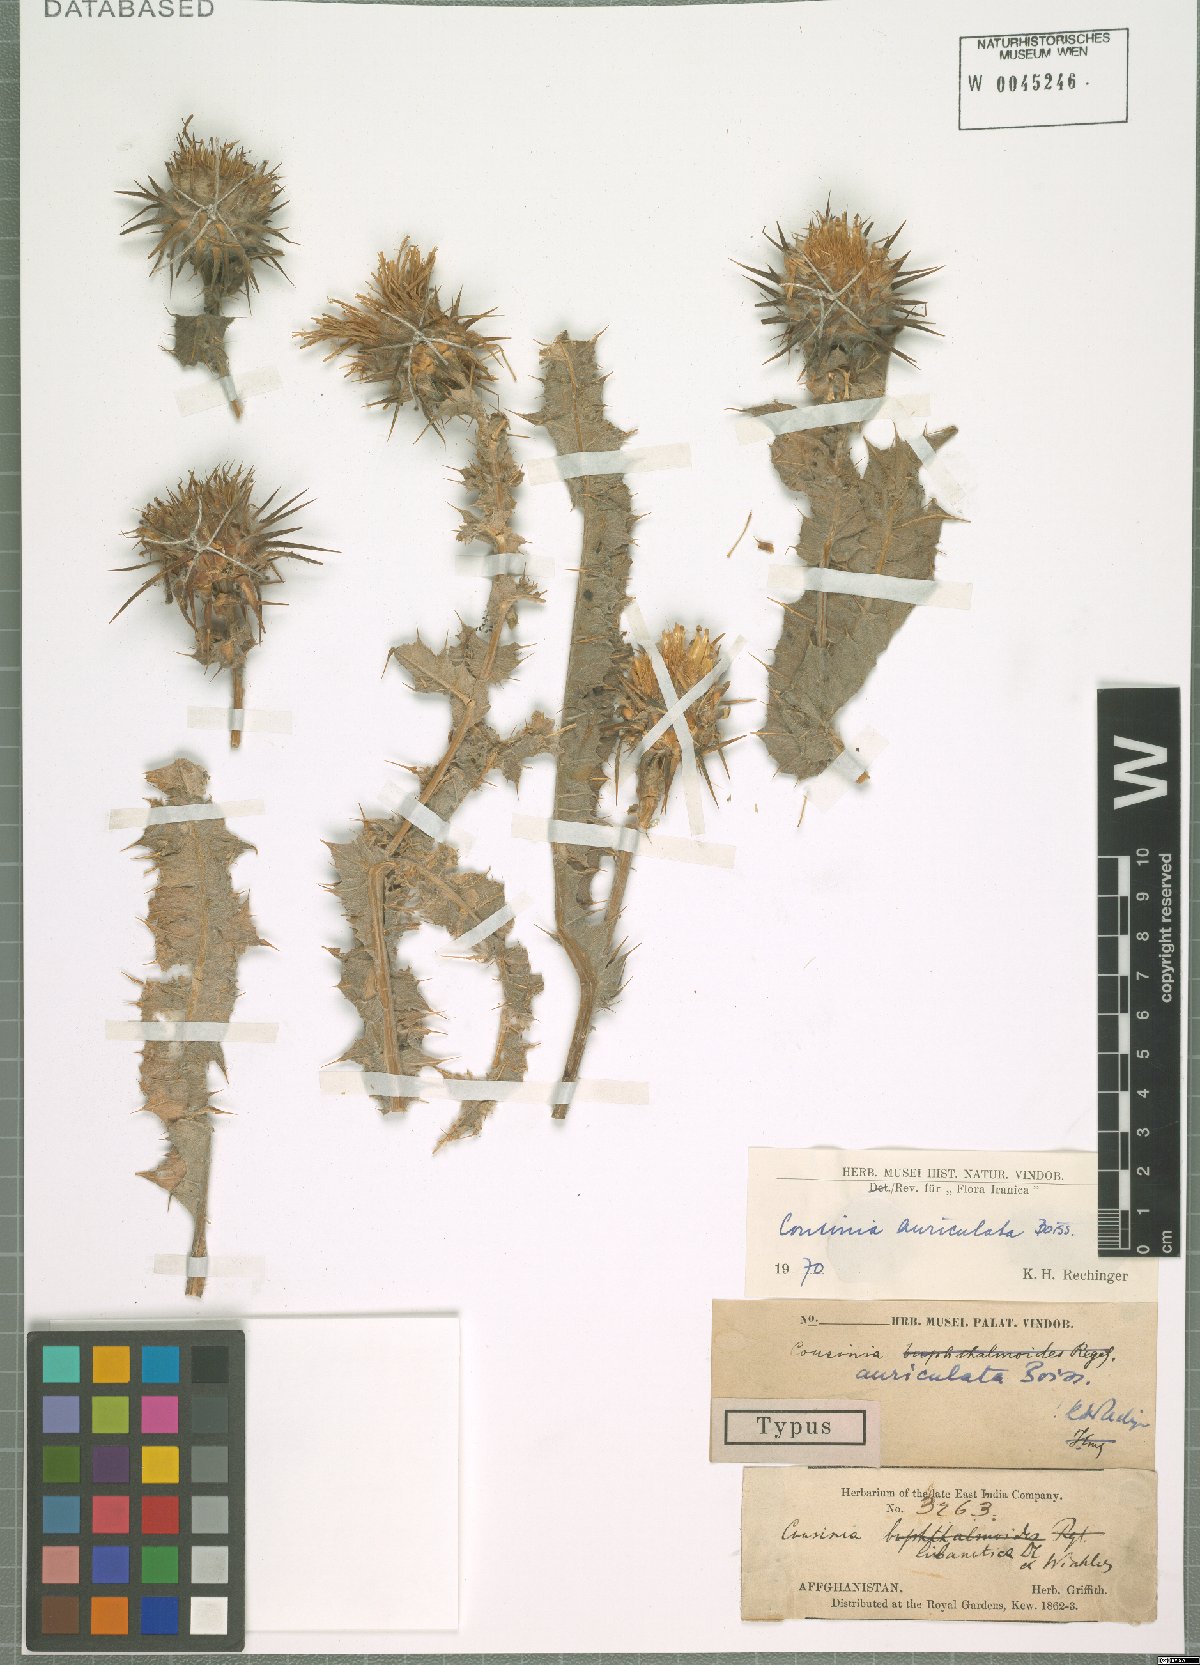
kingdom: Plantae
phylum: Tracheophyta
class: Magnoliopsida
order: Asterales
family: Asteraceae
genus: Cousinia
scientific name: Cousinia auriculata
